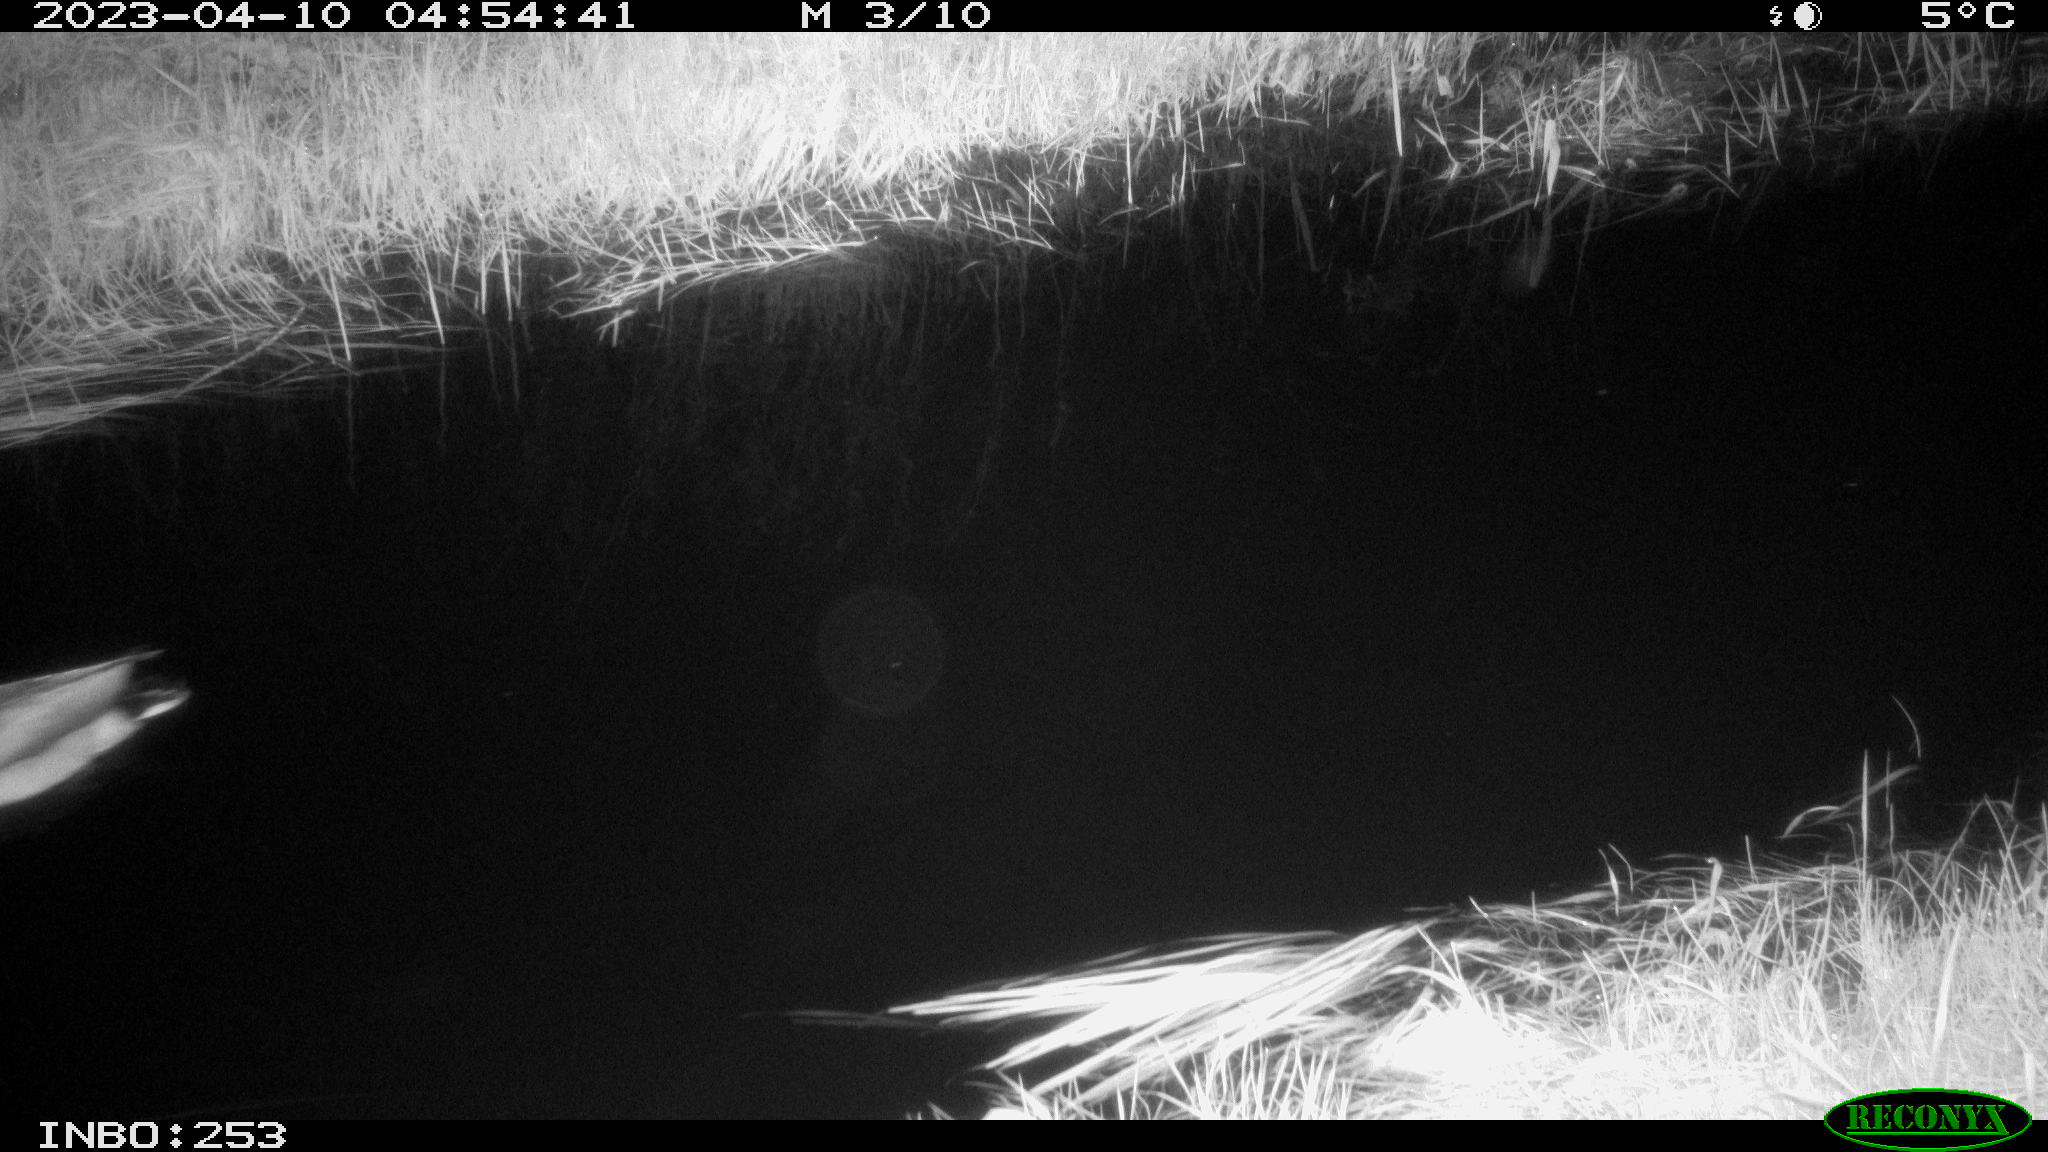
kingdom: Animalia
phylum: Chordata
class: Aves
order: Anseriformes
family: Anatidae
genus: Anas
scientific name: Anas
